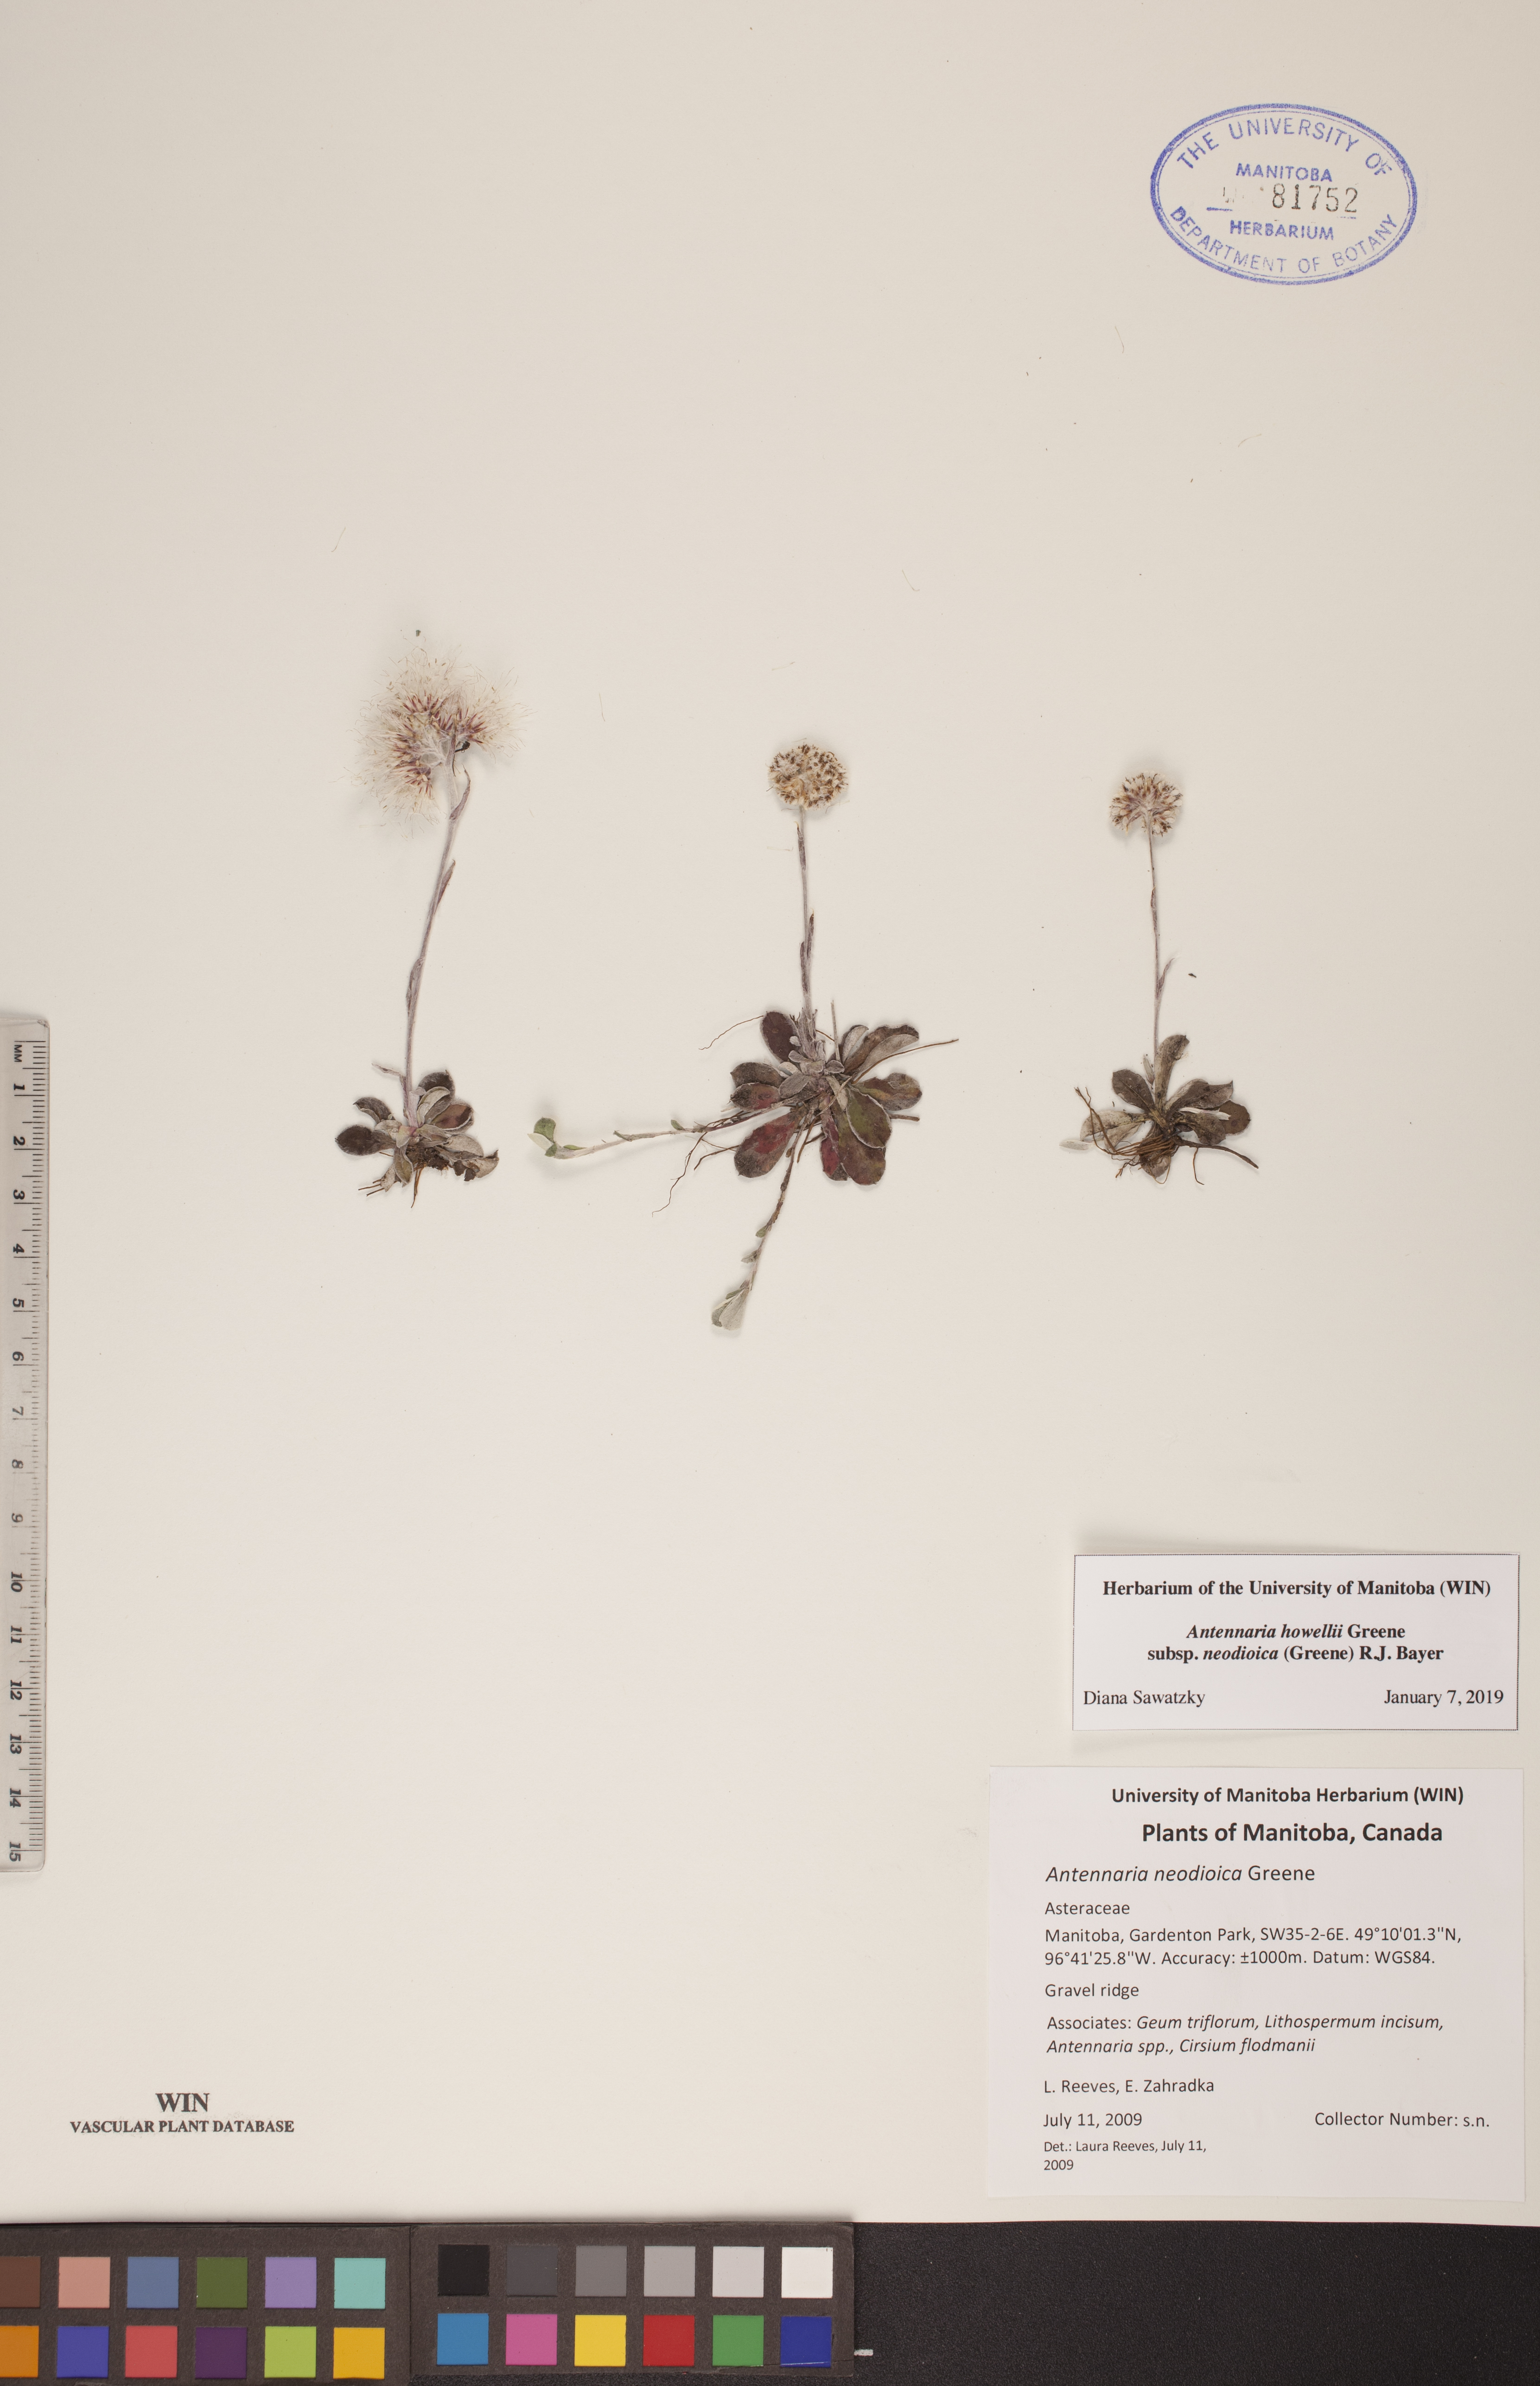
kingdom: Plantae
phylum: Tracheophyta
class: Magnoliopsida
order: Asterales
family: Asteraceae
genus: Antennaria
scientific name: Antennaria howellii
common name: Howell's pussytoes
